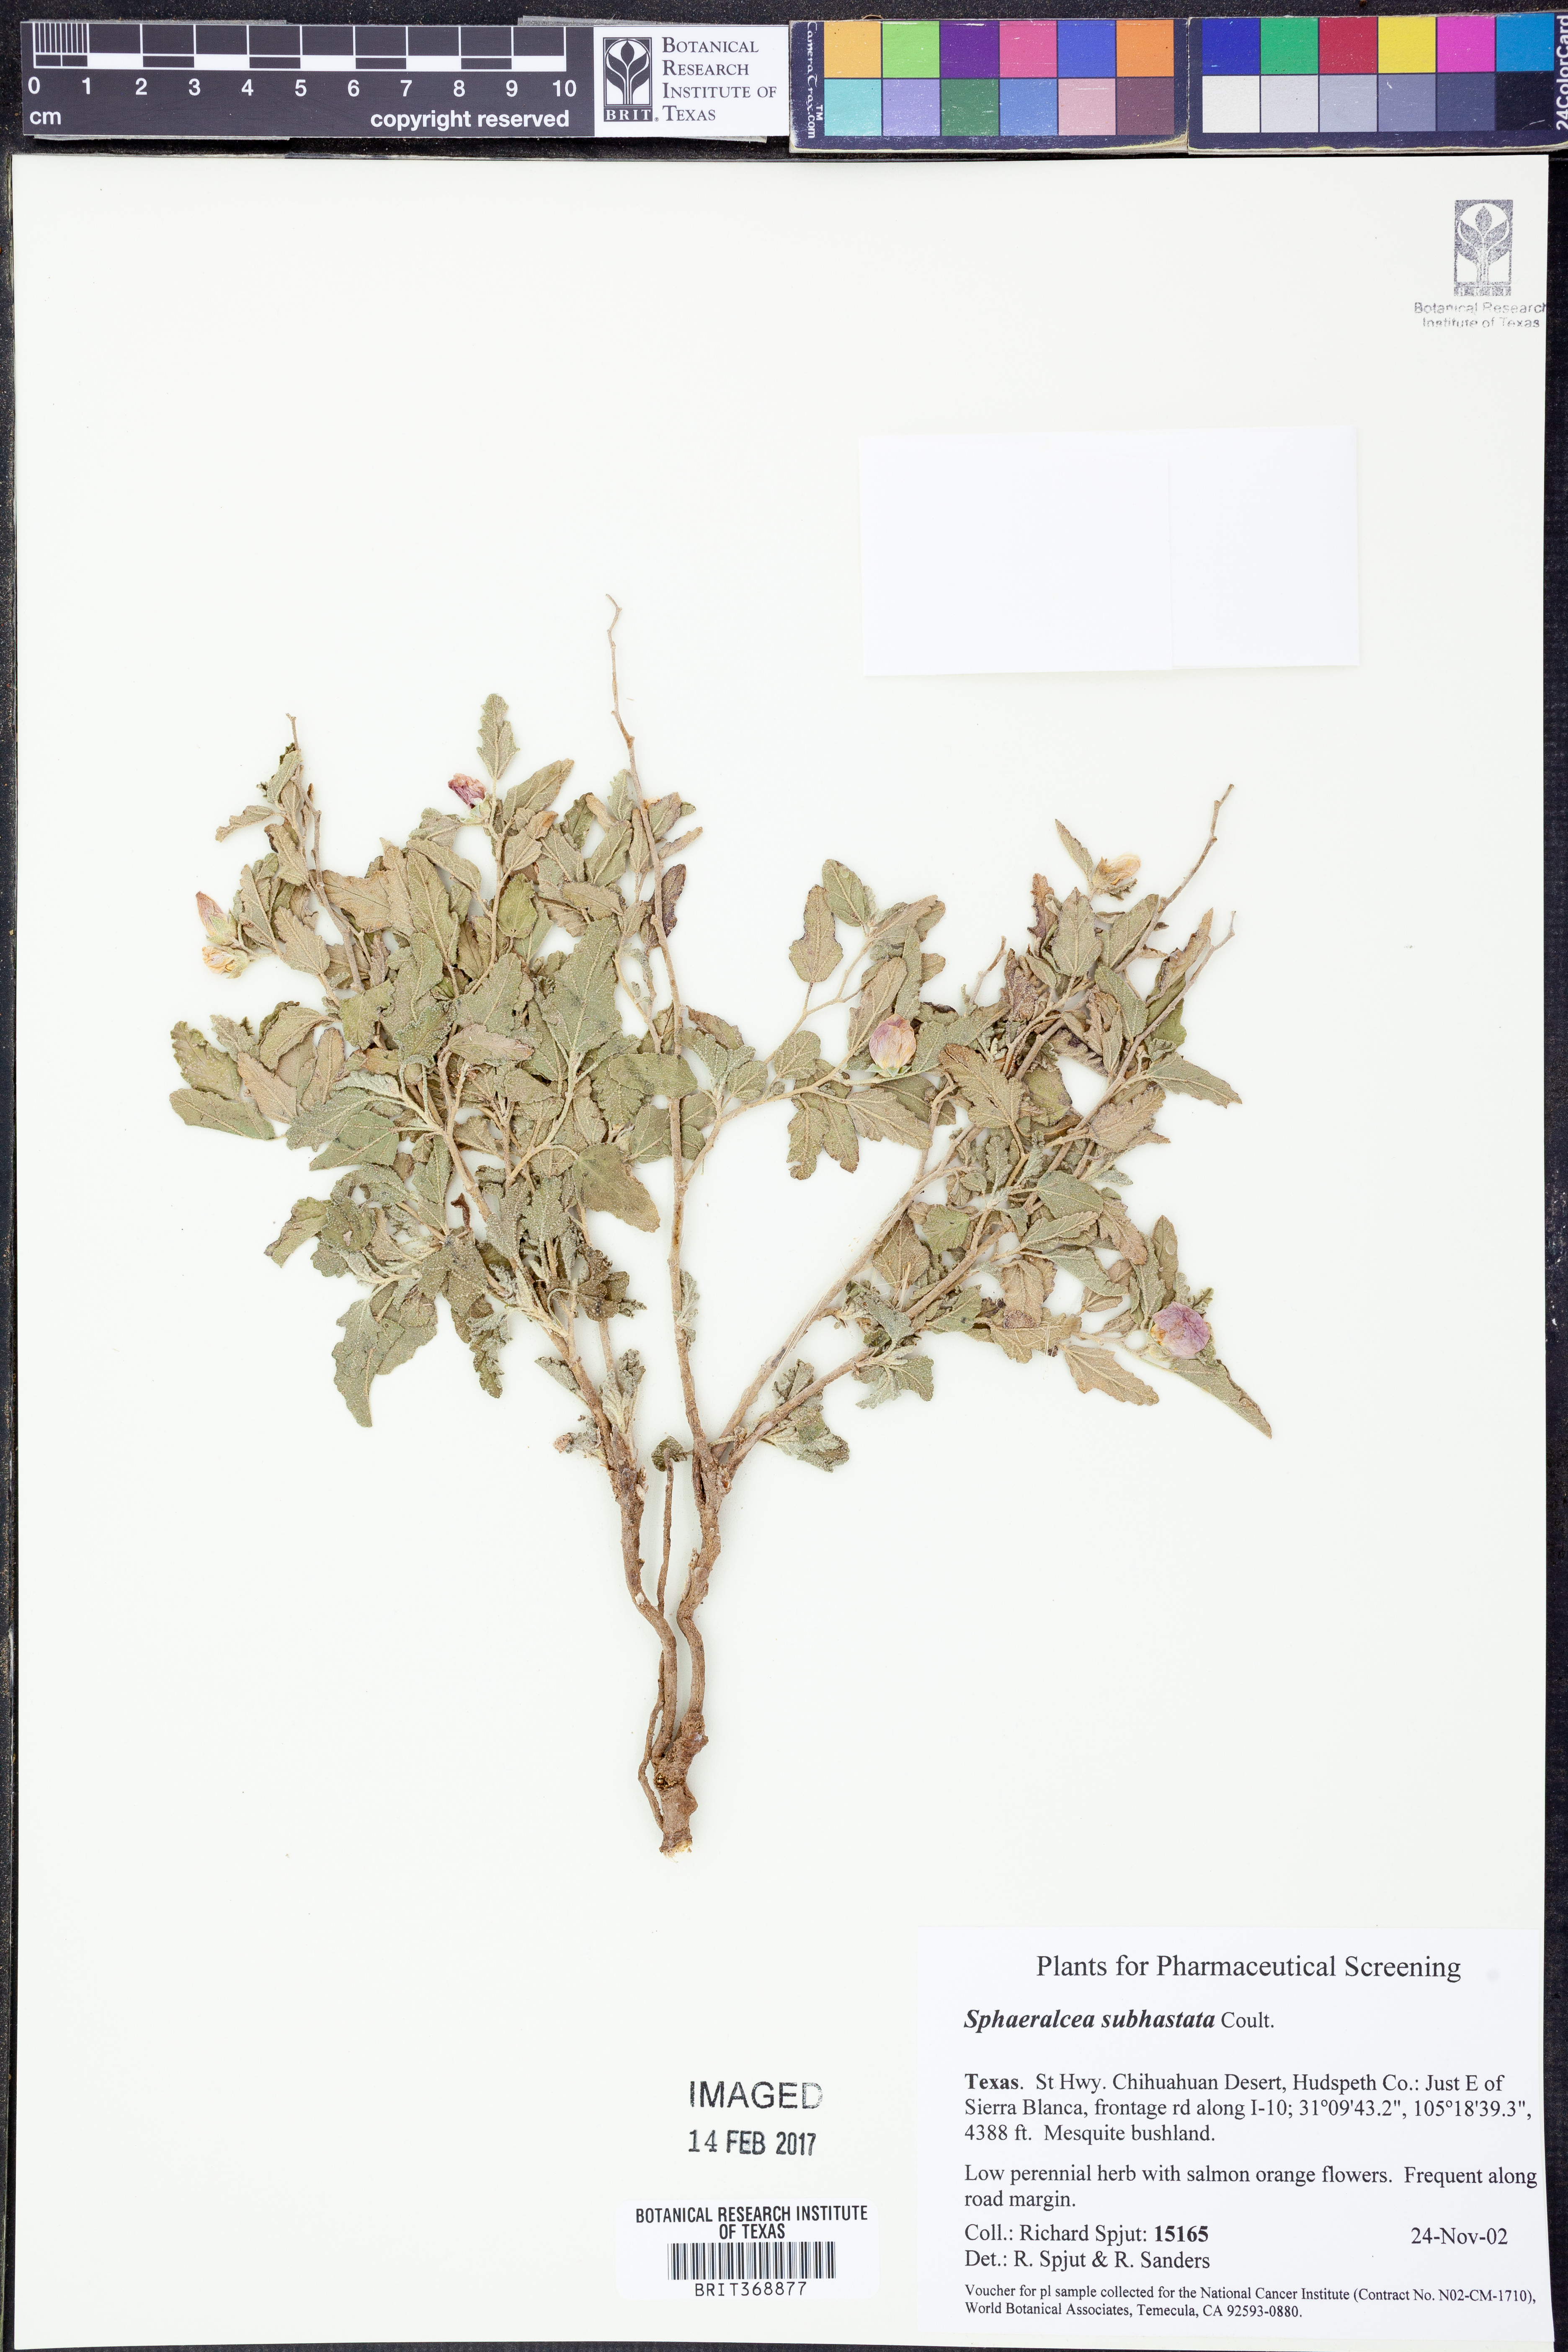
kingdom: Plantae
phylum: Tracheophyta
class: Magnoliopsida
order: Malvales
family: Malvaceae
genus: Sphaeralcea
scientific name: Sphaeralcea hastulata
